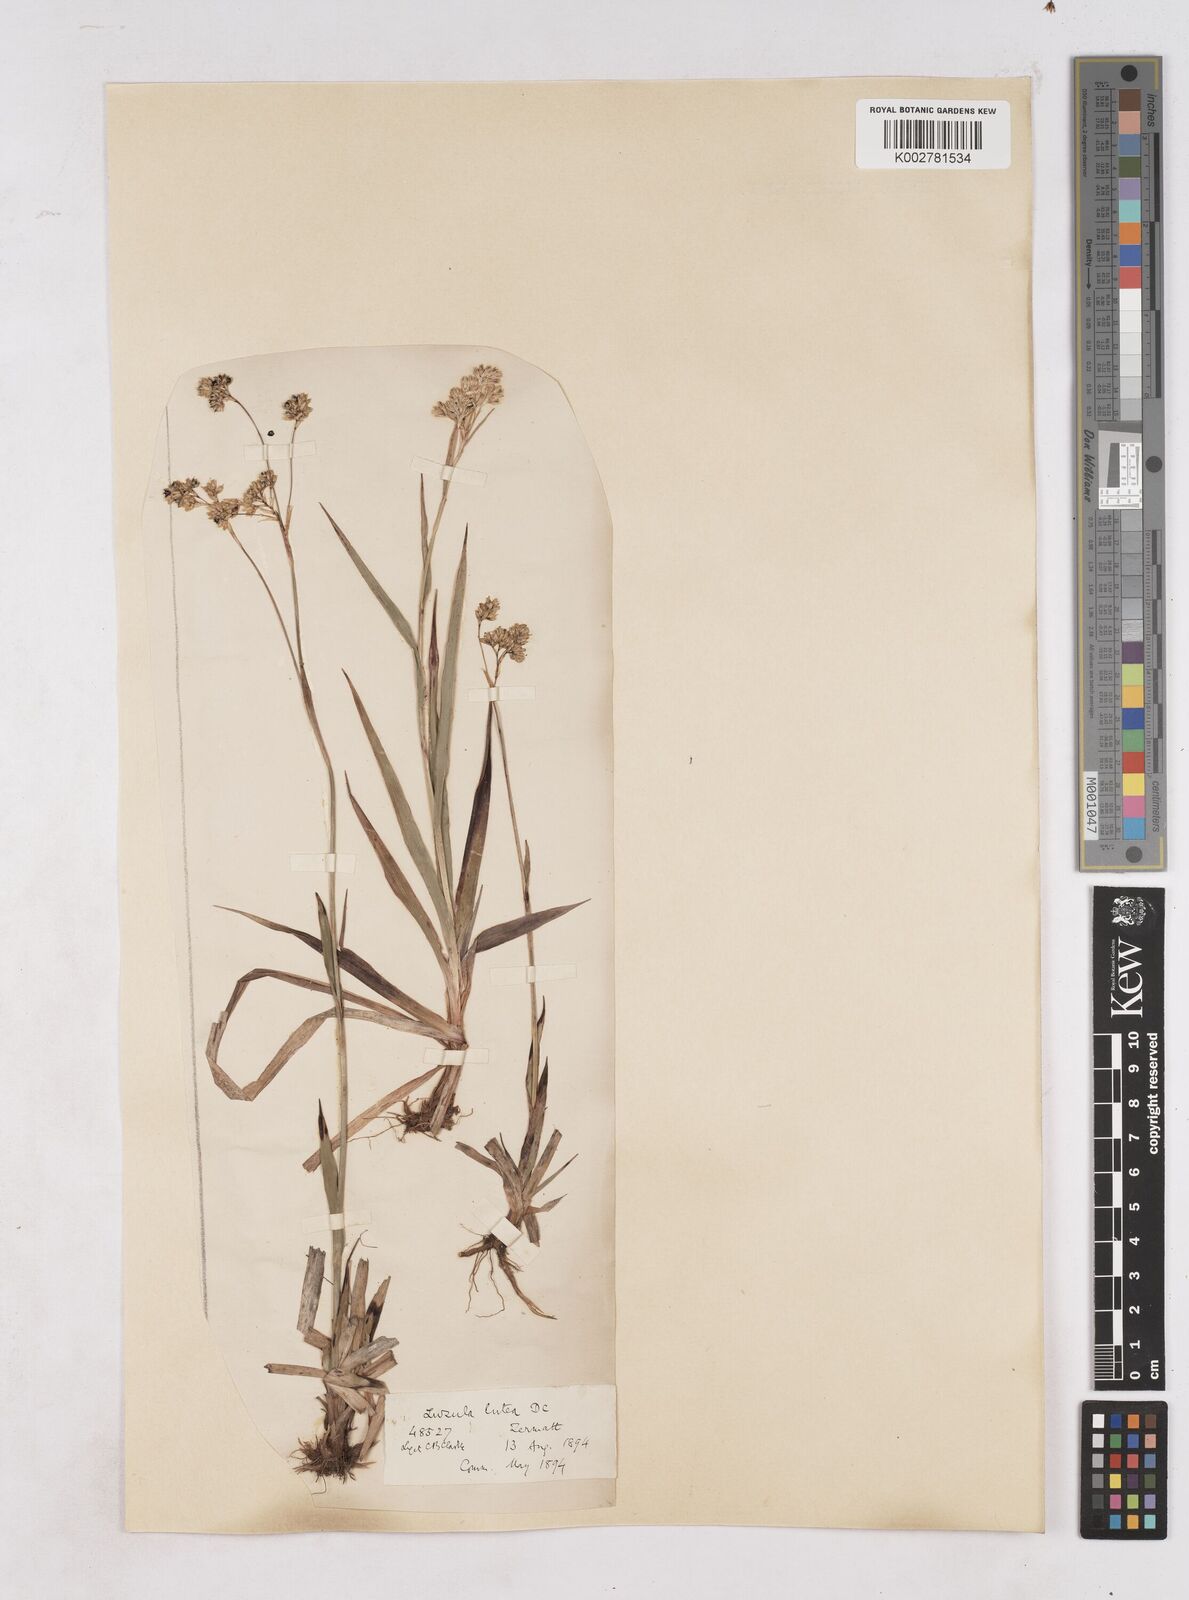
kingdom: Plantae
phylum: Tracheophyta
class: Liliopsida
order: Poales
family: Juncaceae
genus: Luzula
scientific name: Luzula lutea
